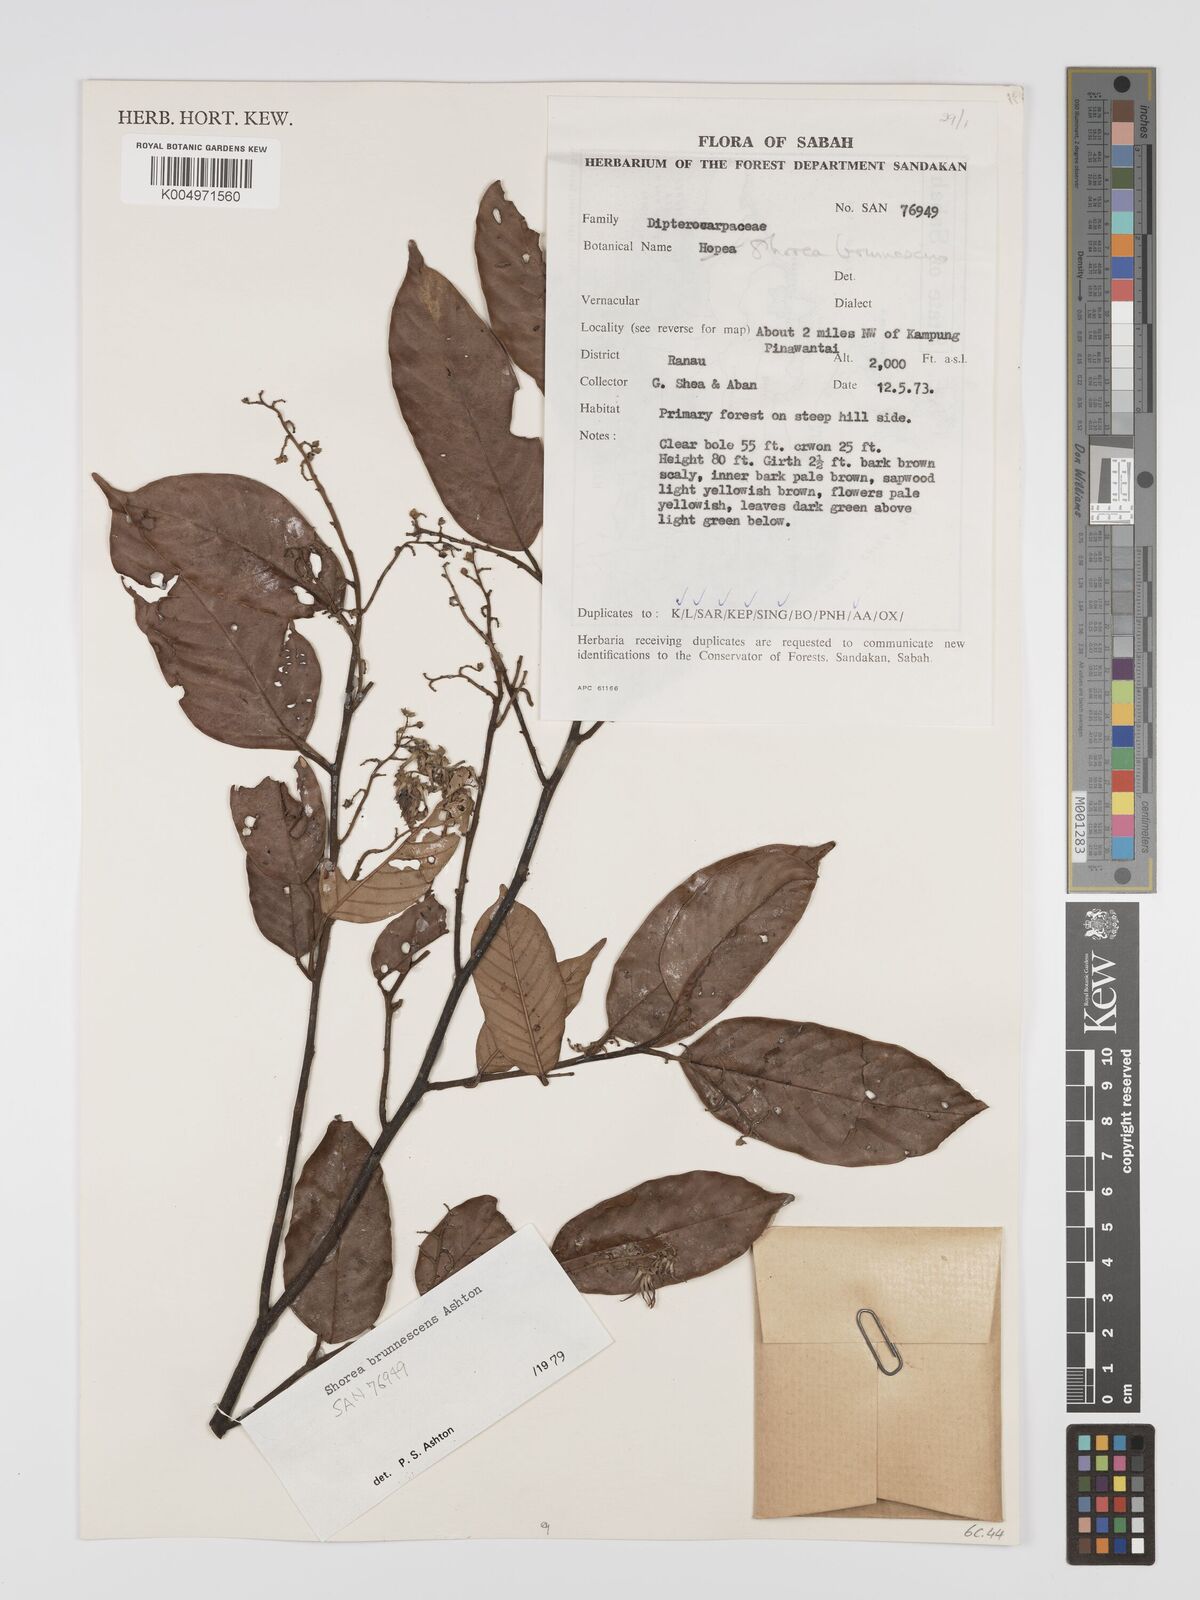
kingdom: Plantae
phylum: Tracheophyta
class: Magnoliopsida
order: Malvales
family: Dipterocarpaceae
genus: Shorea
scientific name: Shorea brunnescens
